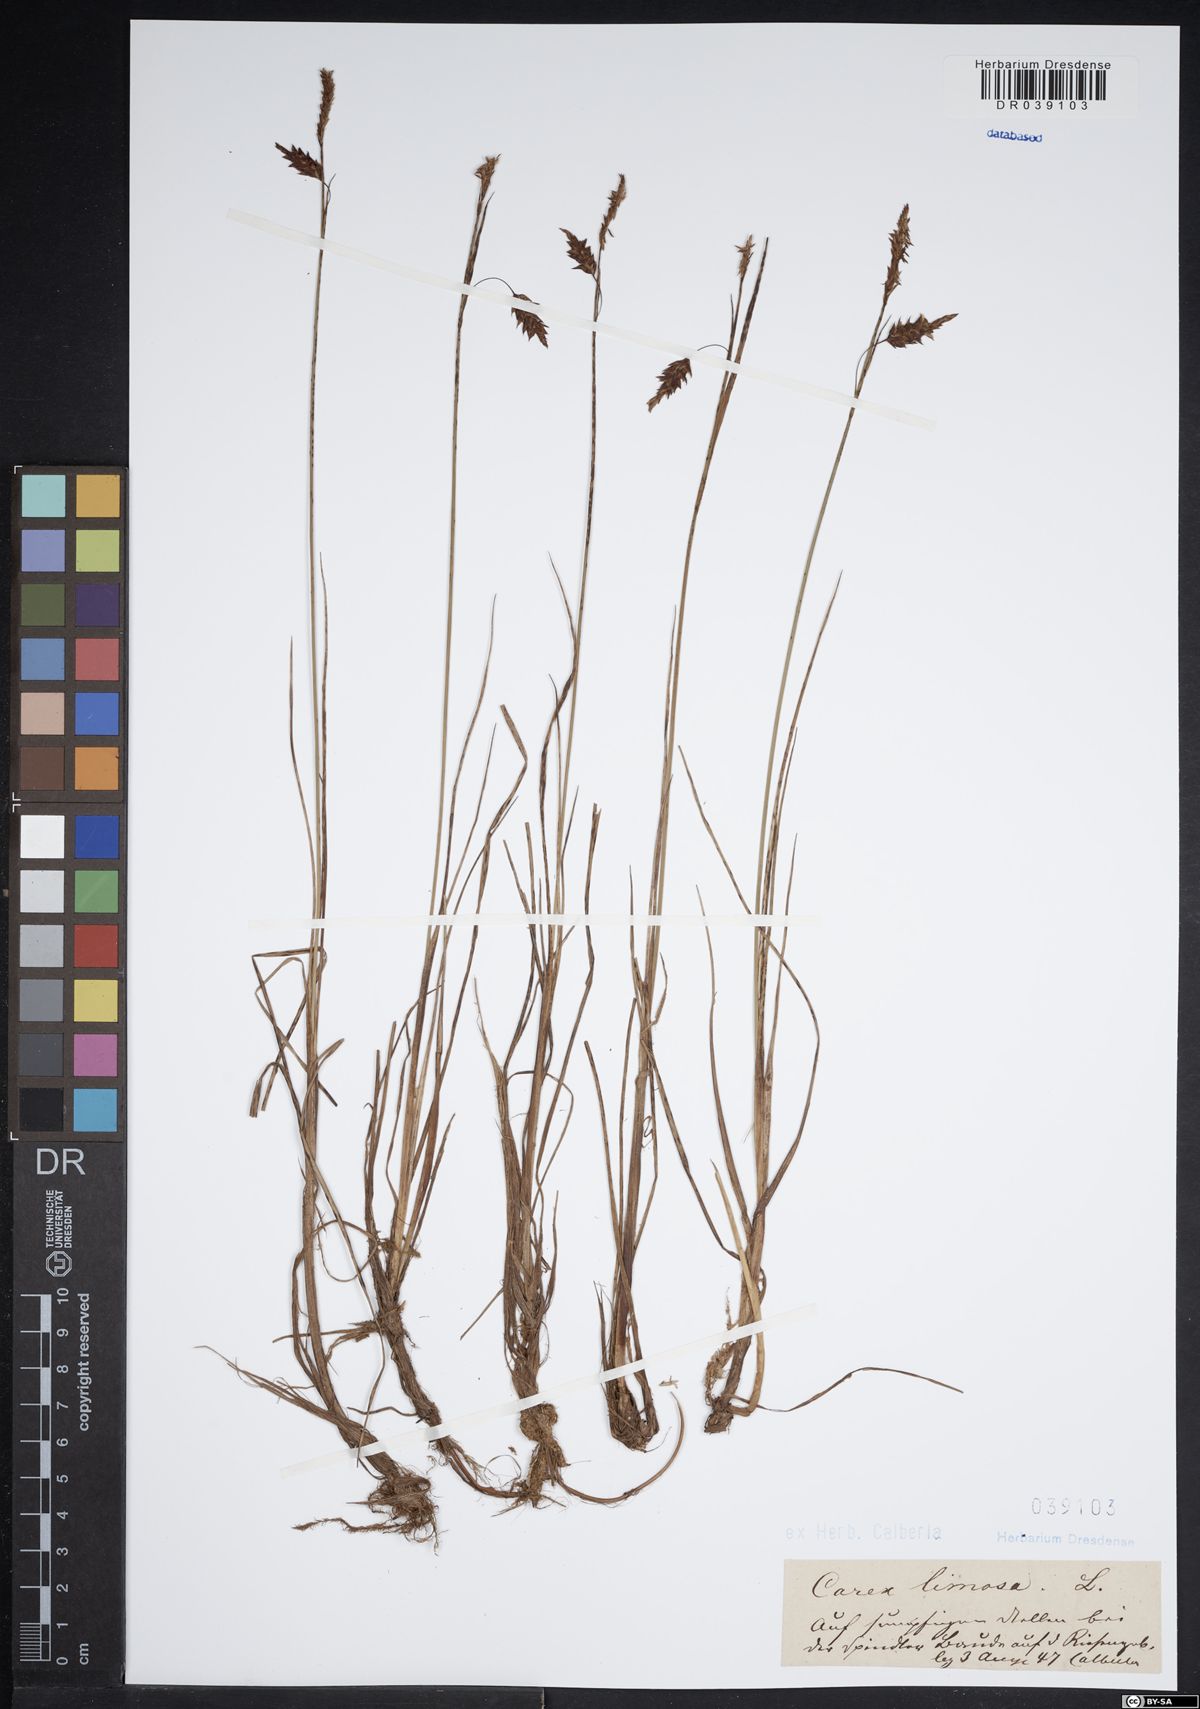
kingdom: Plantae
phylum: Tracheophyta
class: Liliopsida
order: Poales
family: Cyperaceae
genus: Carex
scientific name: Carex limosa
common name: Bog sedge
